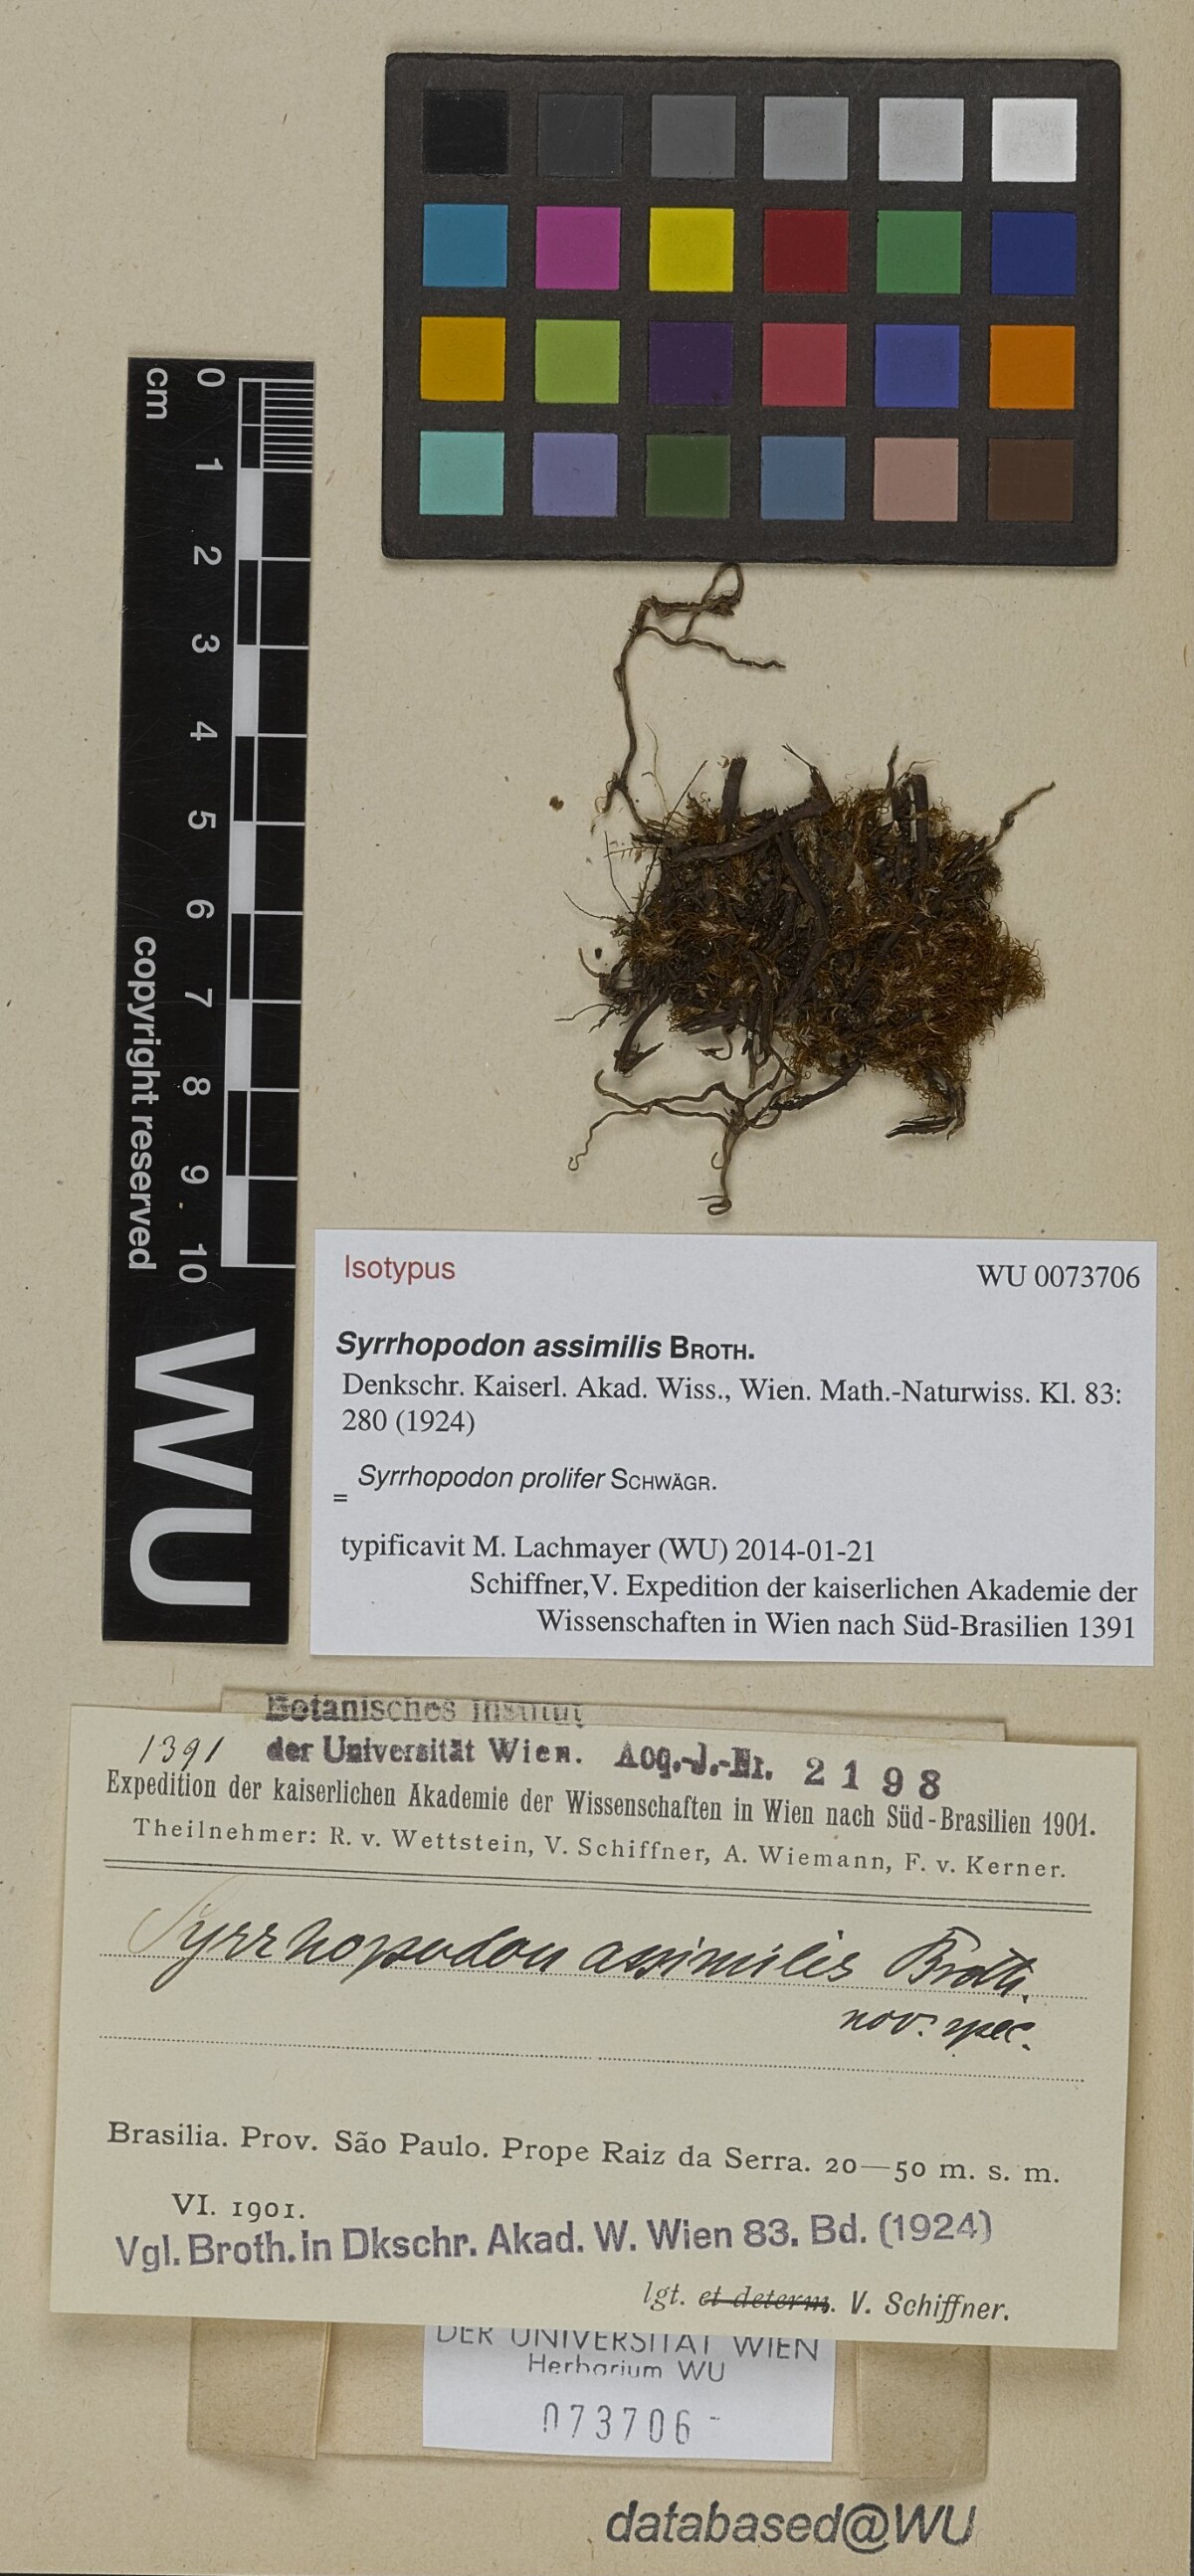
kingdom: Plantae
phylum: Bryophyta
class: Bryopsida
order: Dicranales
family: Calymperaceae
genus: Syrrhopodon
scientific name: Syrrhopodon prolifer
